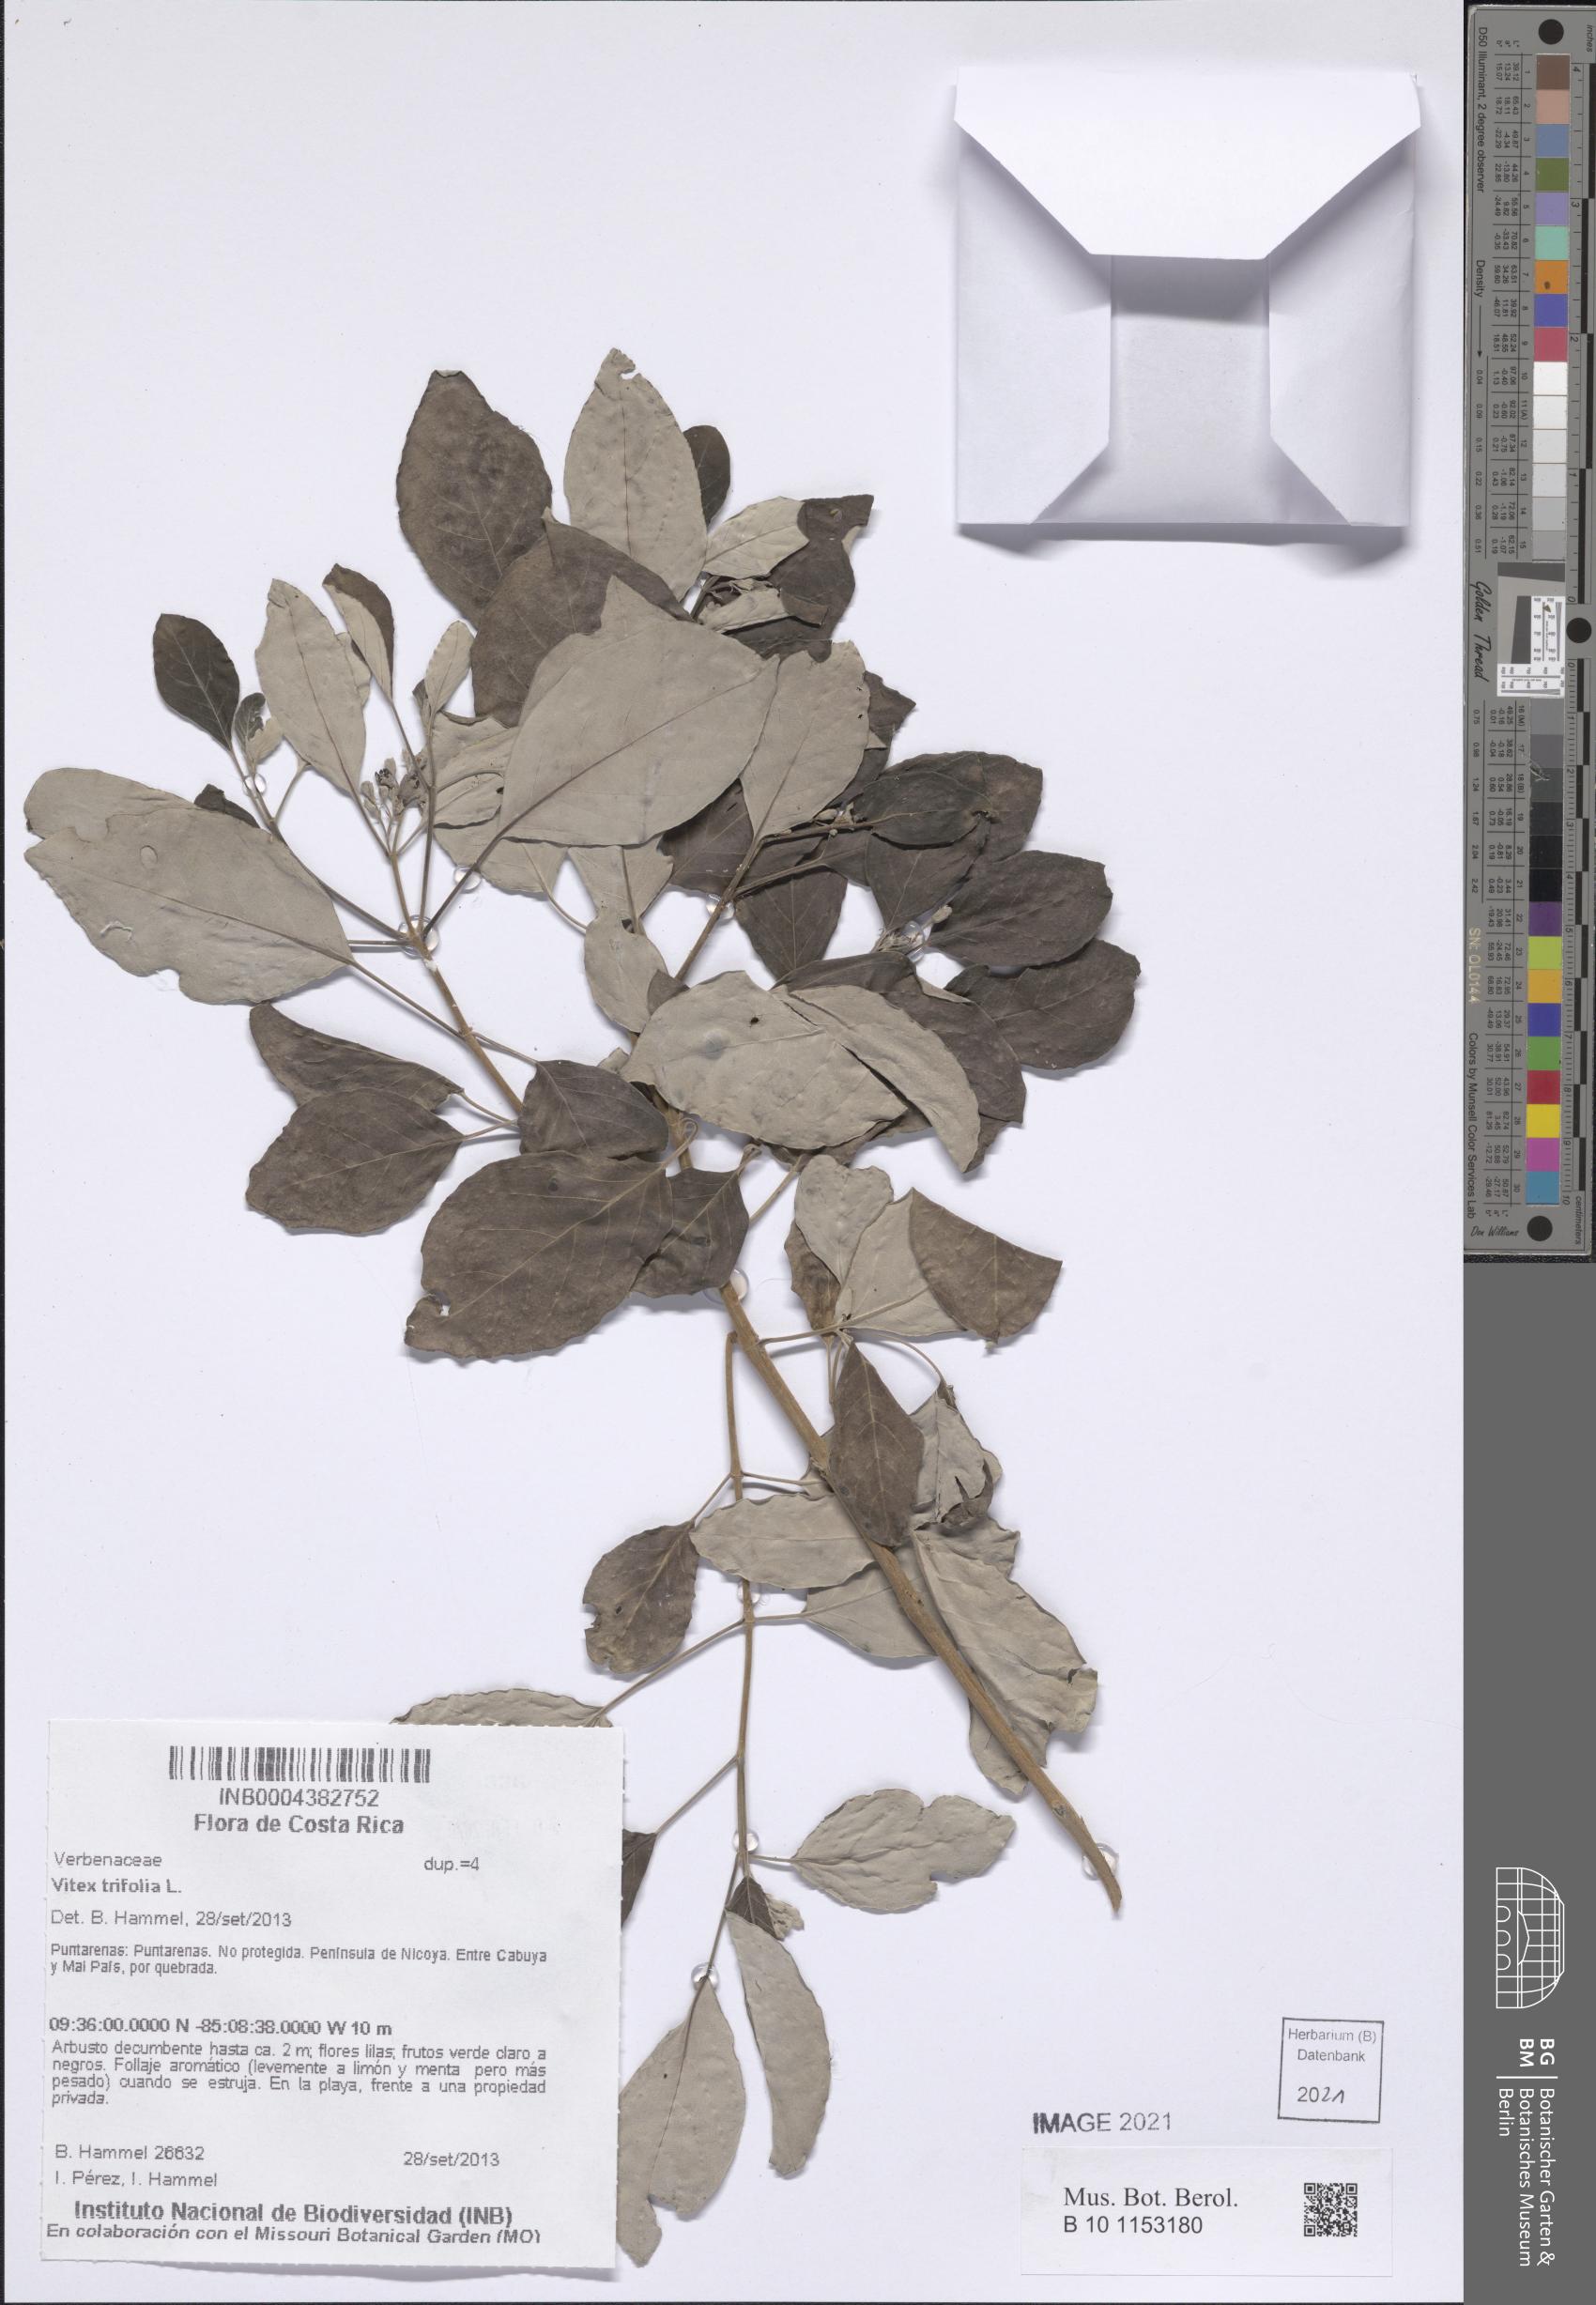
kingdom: Plantae
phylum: Tracheophyta
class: Magnoliopsida
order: Lamiales
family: Lamiaceae
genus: Vitex
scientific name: Vitex trifolia
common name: Simpleleaf chastetree
